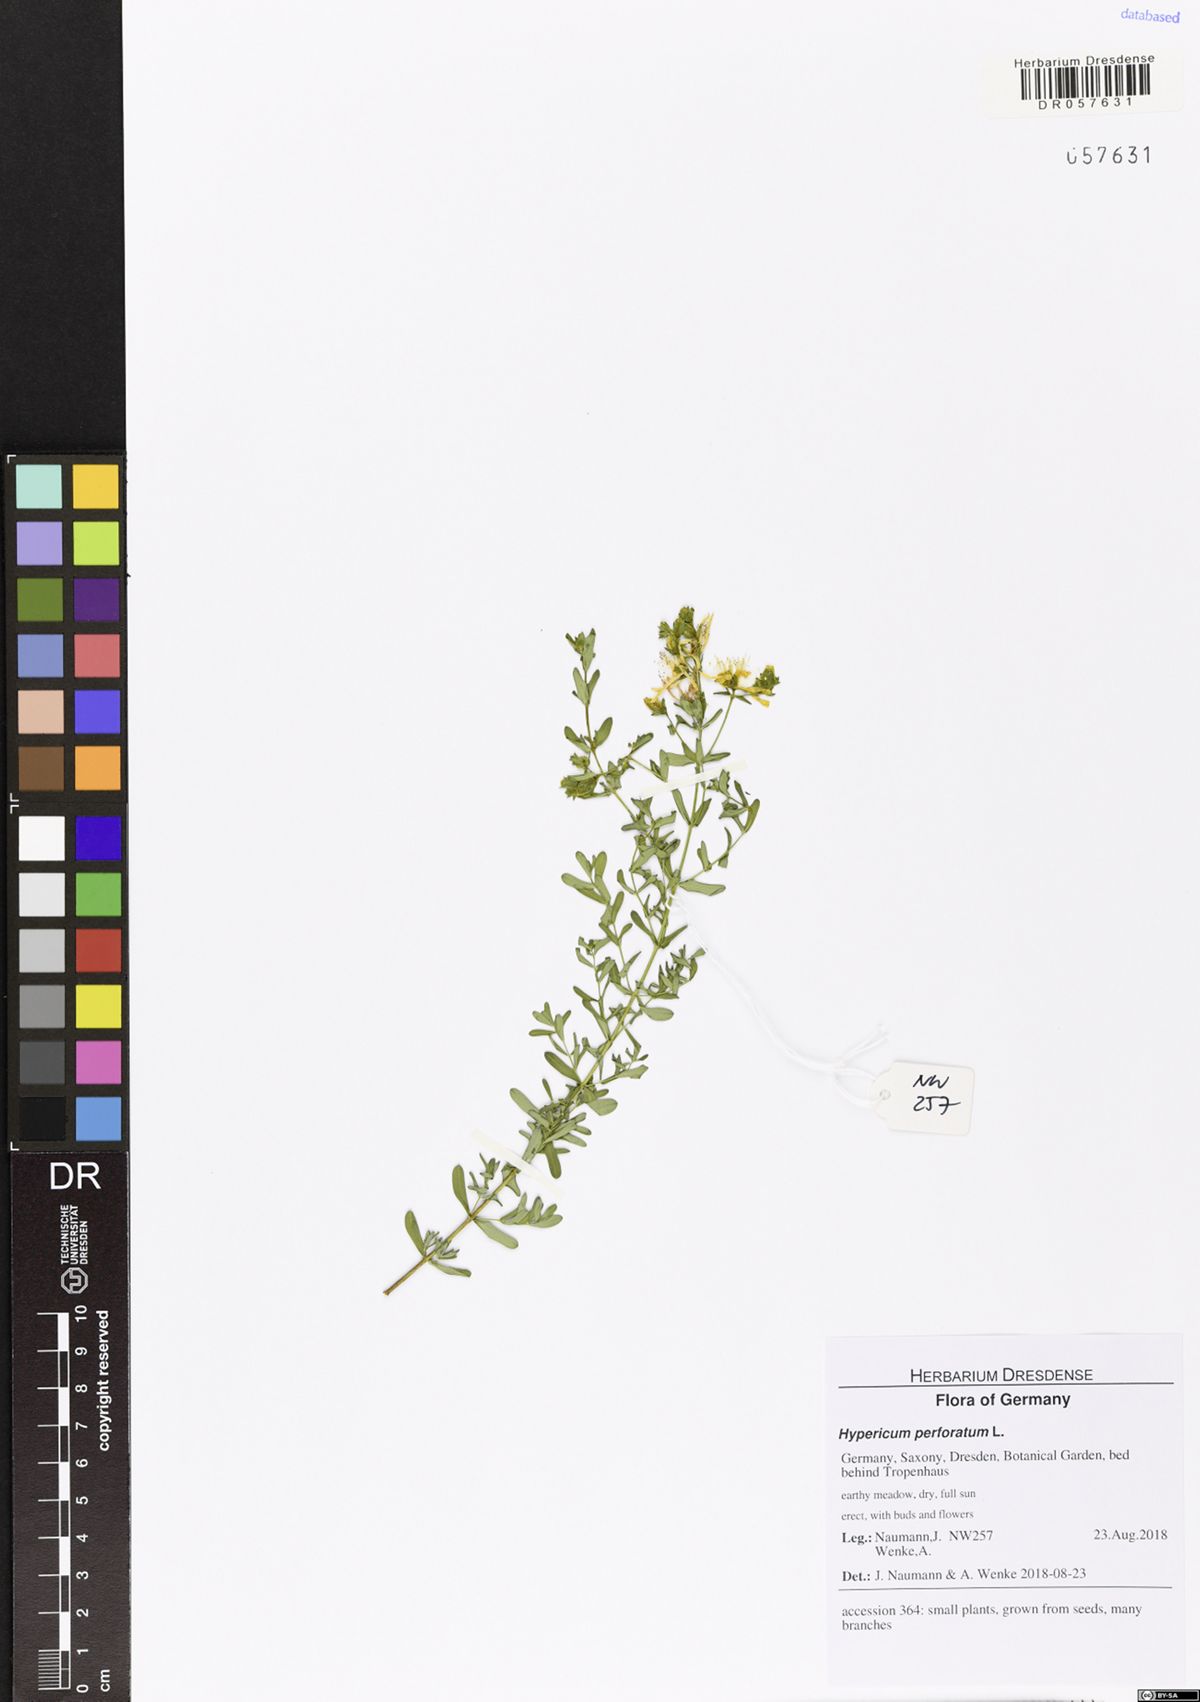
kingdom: Plantae
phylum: Tracheophyta
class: Magnoliopsida
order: Malpighiales
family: Hypericaceae
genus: Hypericum
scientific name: Hypericum perforatum
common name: Common st. johnswort
